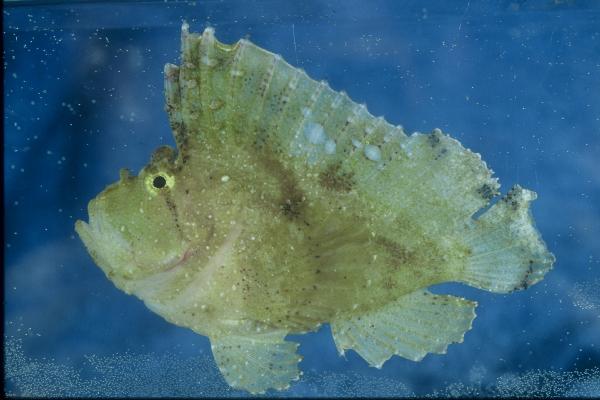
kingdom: Animalia
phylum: Chordata
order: Scorpaeniformes
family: Scorpaenidae
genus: Taenianotus
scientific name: Taenianotus triacanthus
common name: Leaf scorpionfish
